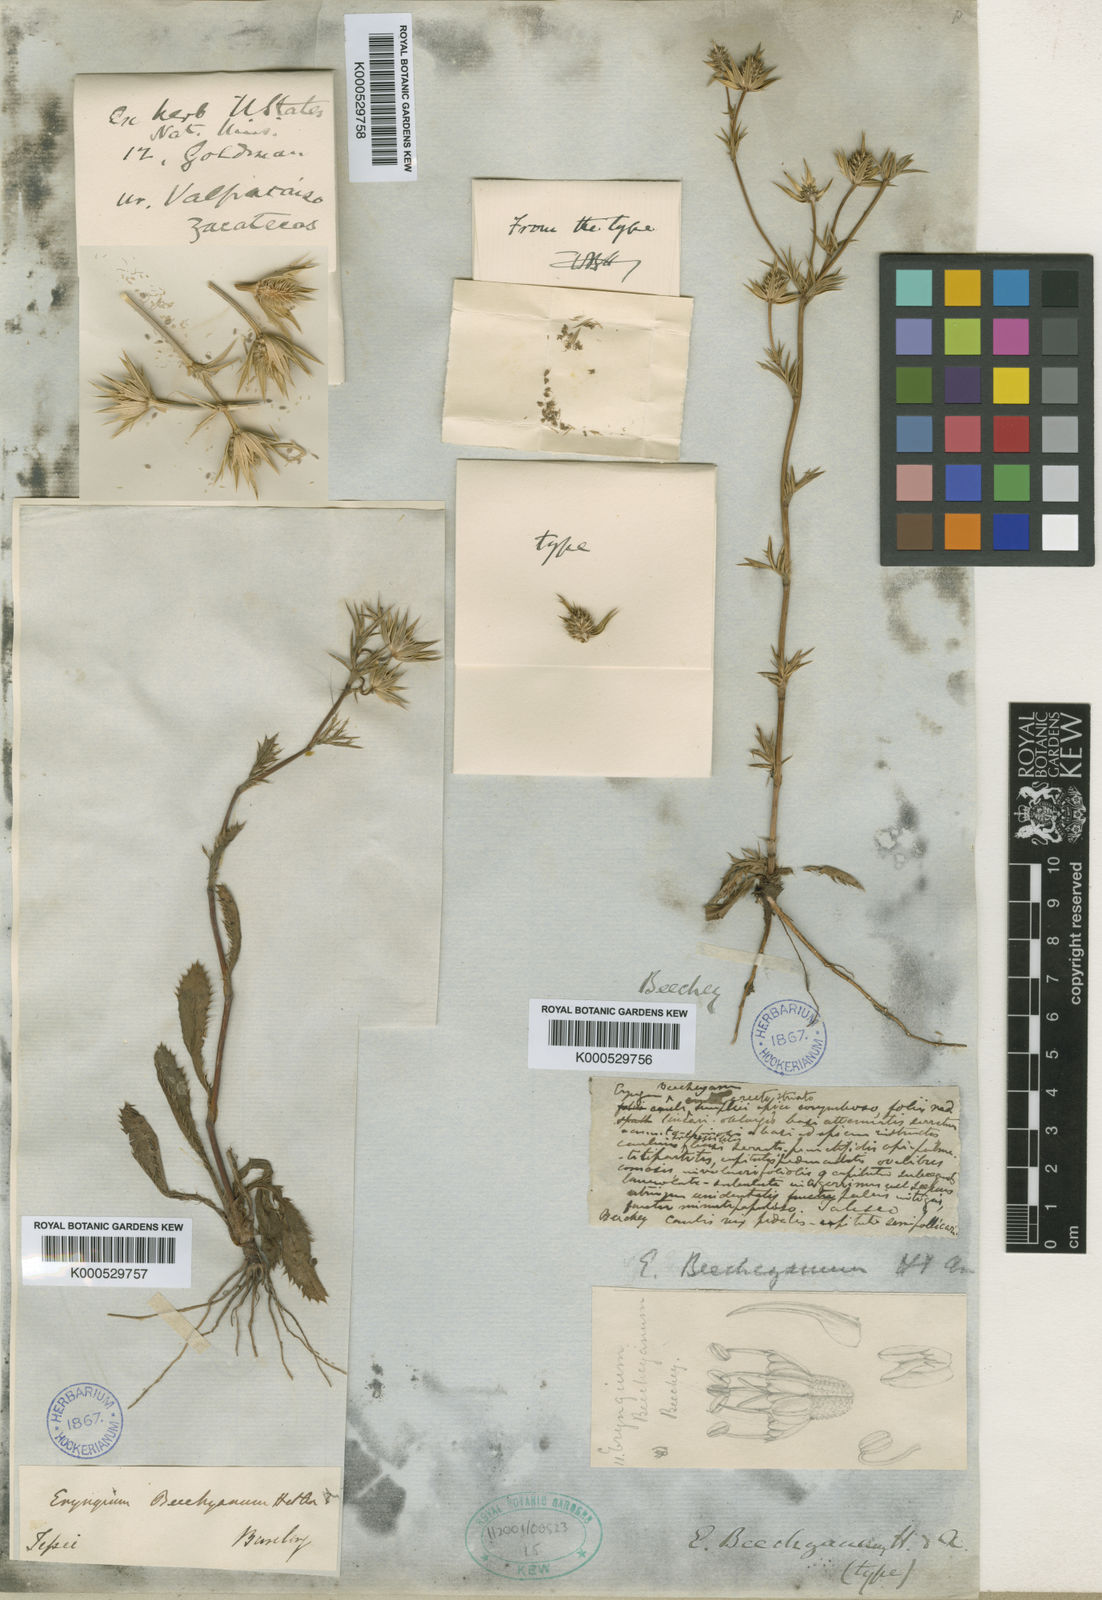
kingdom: Plantae
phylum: Tracheophyta
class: Magnoliopsida
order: Apiales
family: Apiaceae
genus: Eryngium
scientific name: Eryngium beecheyanum
